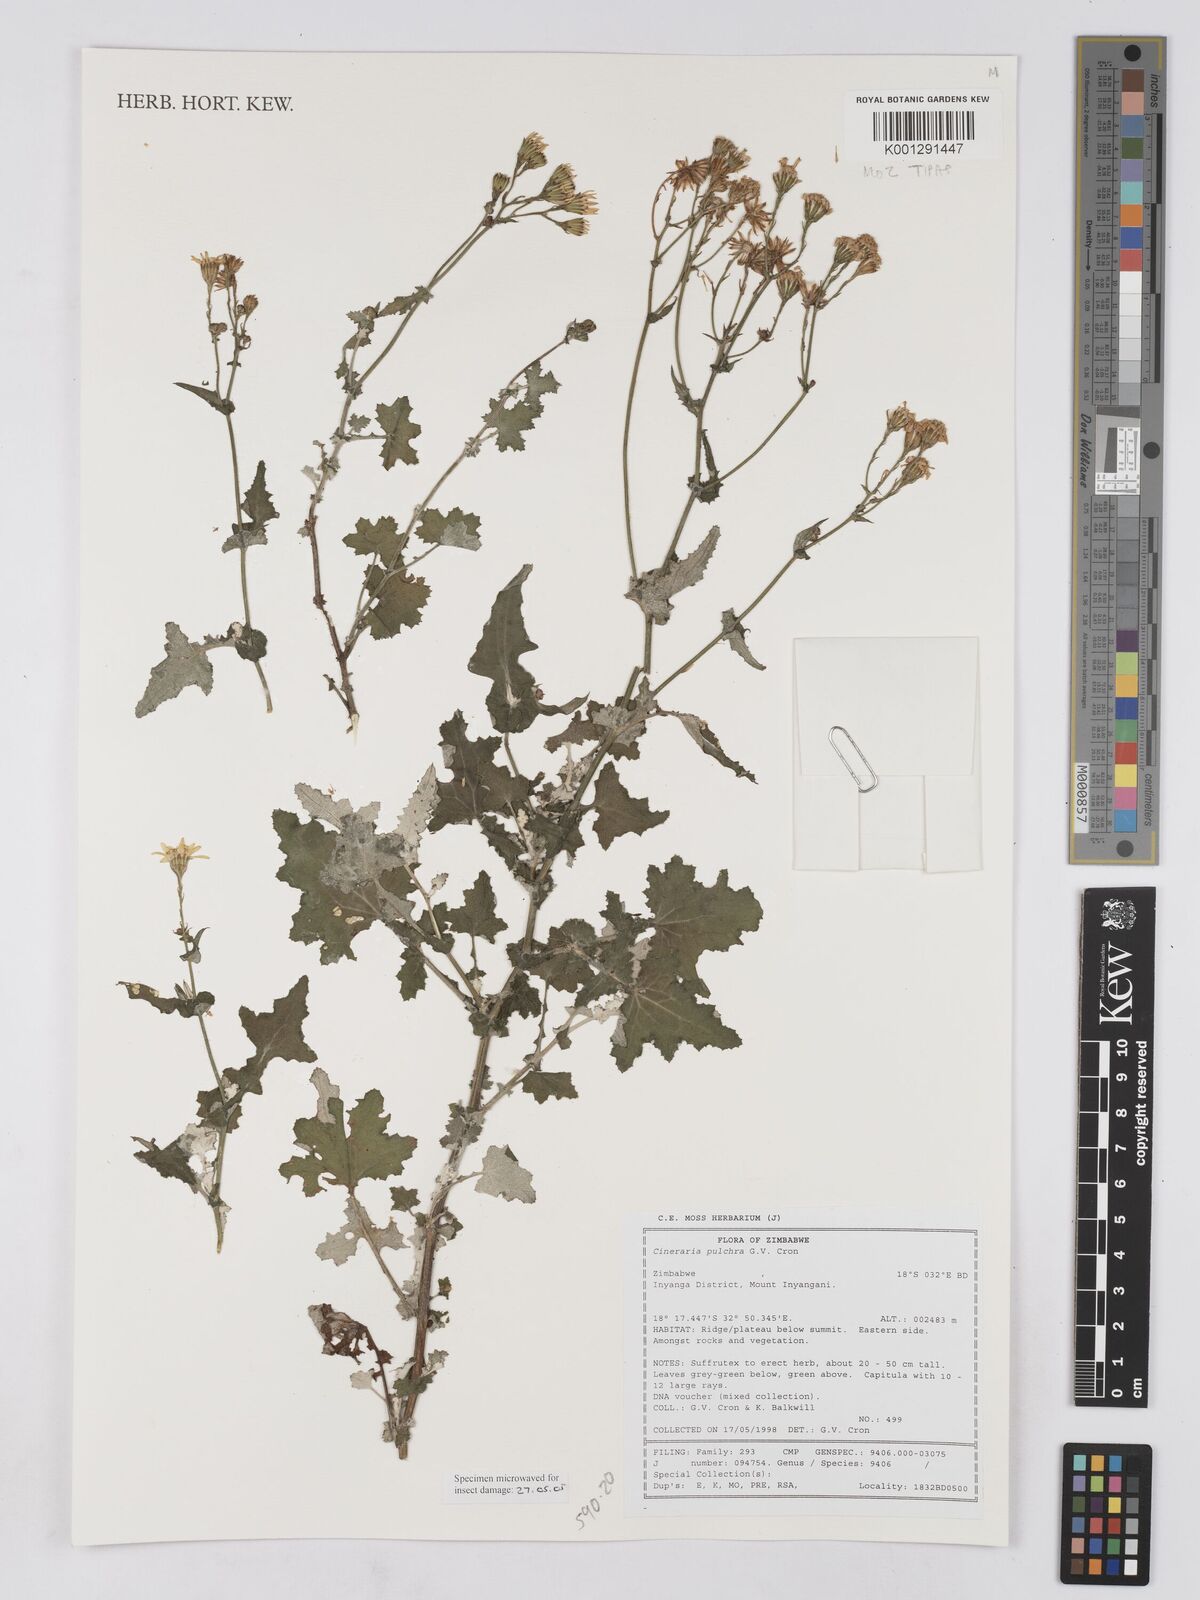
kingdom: Plantae
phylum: Tracheophyta
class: Magnoliopsida
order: Asterales
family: Asteraceae
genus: Cineraria
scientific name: Cineraria pulchra
